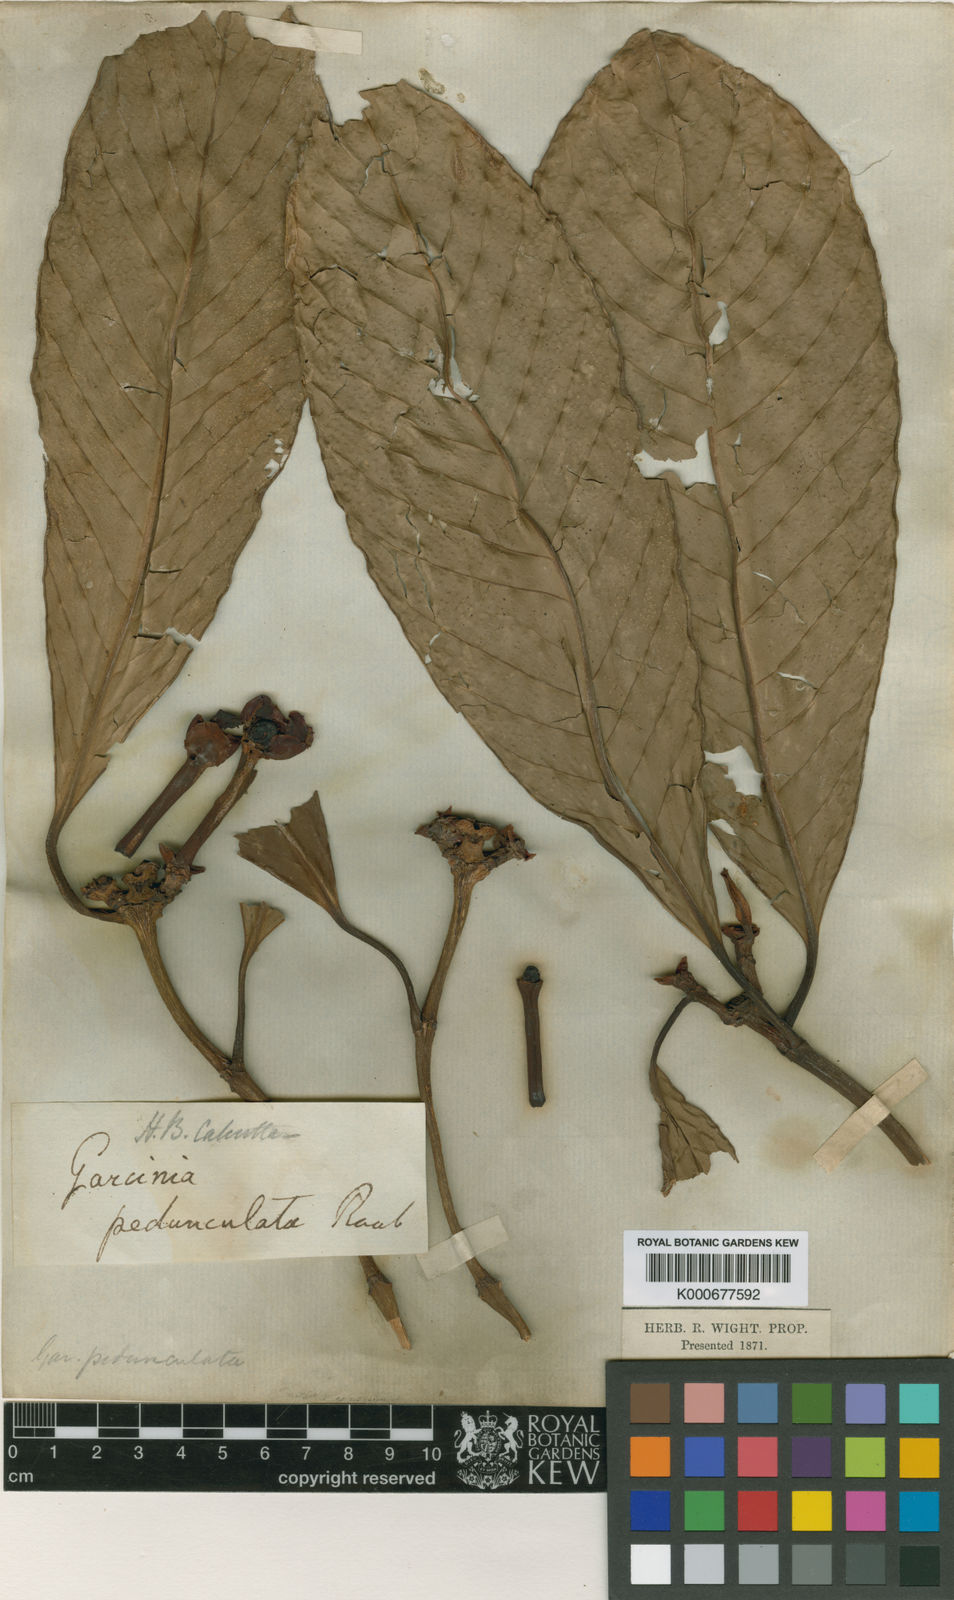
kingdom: Plantae
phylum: Tracheophyta
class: Magnoliopsida
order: Malpighiales
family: Clusiaceae
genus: Garcinia
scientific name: Garcinia
